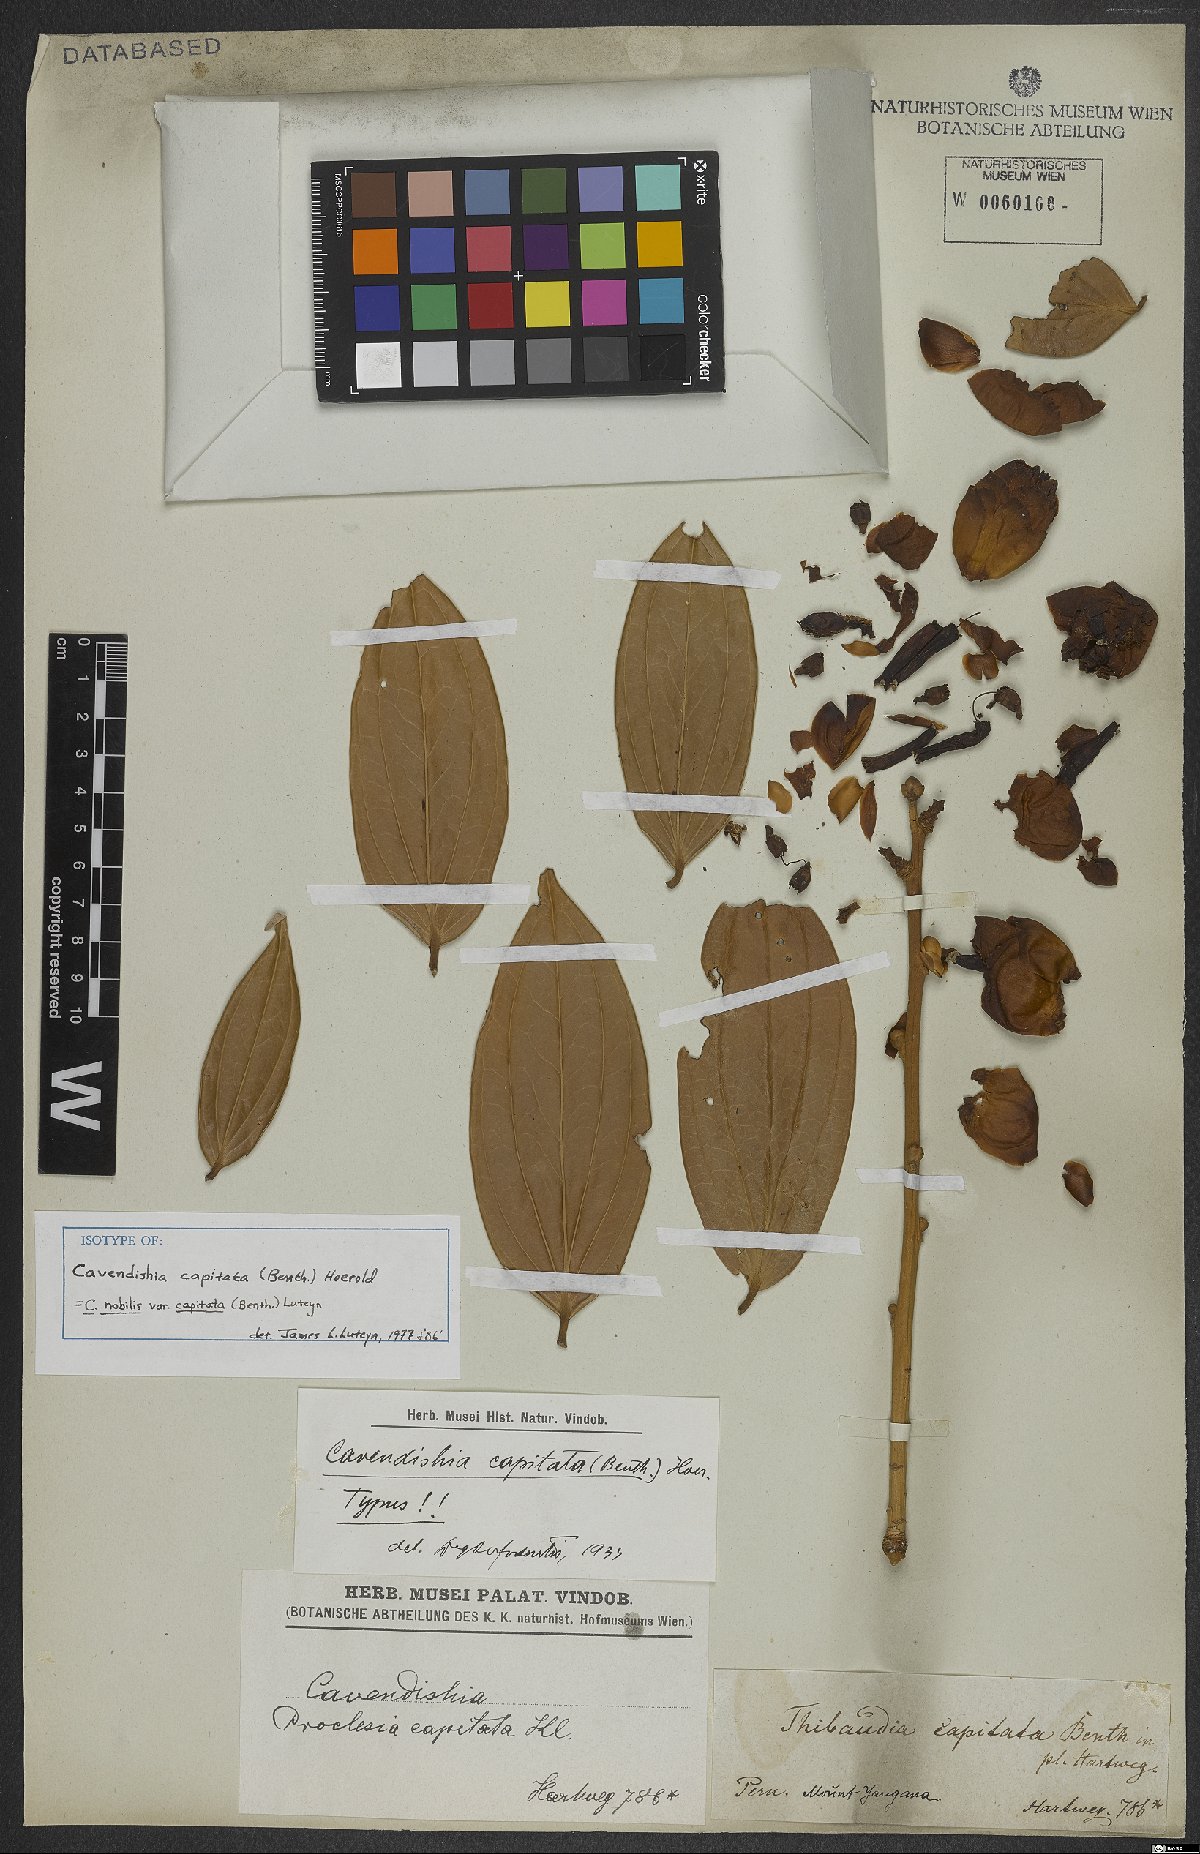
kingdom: Plantae
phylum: Tracheophyta
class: Magnoliopsida
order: Ericales
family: Ericaceae
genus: Cavendishia
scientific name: Cavendishia nobilis
